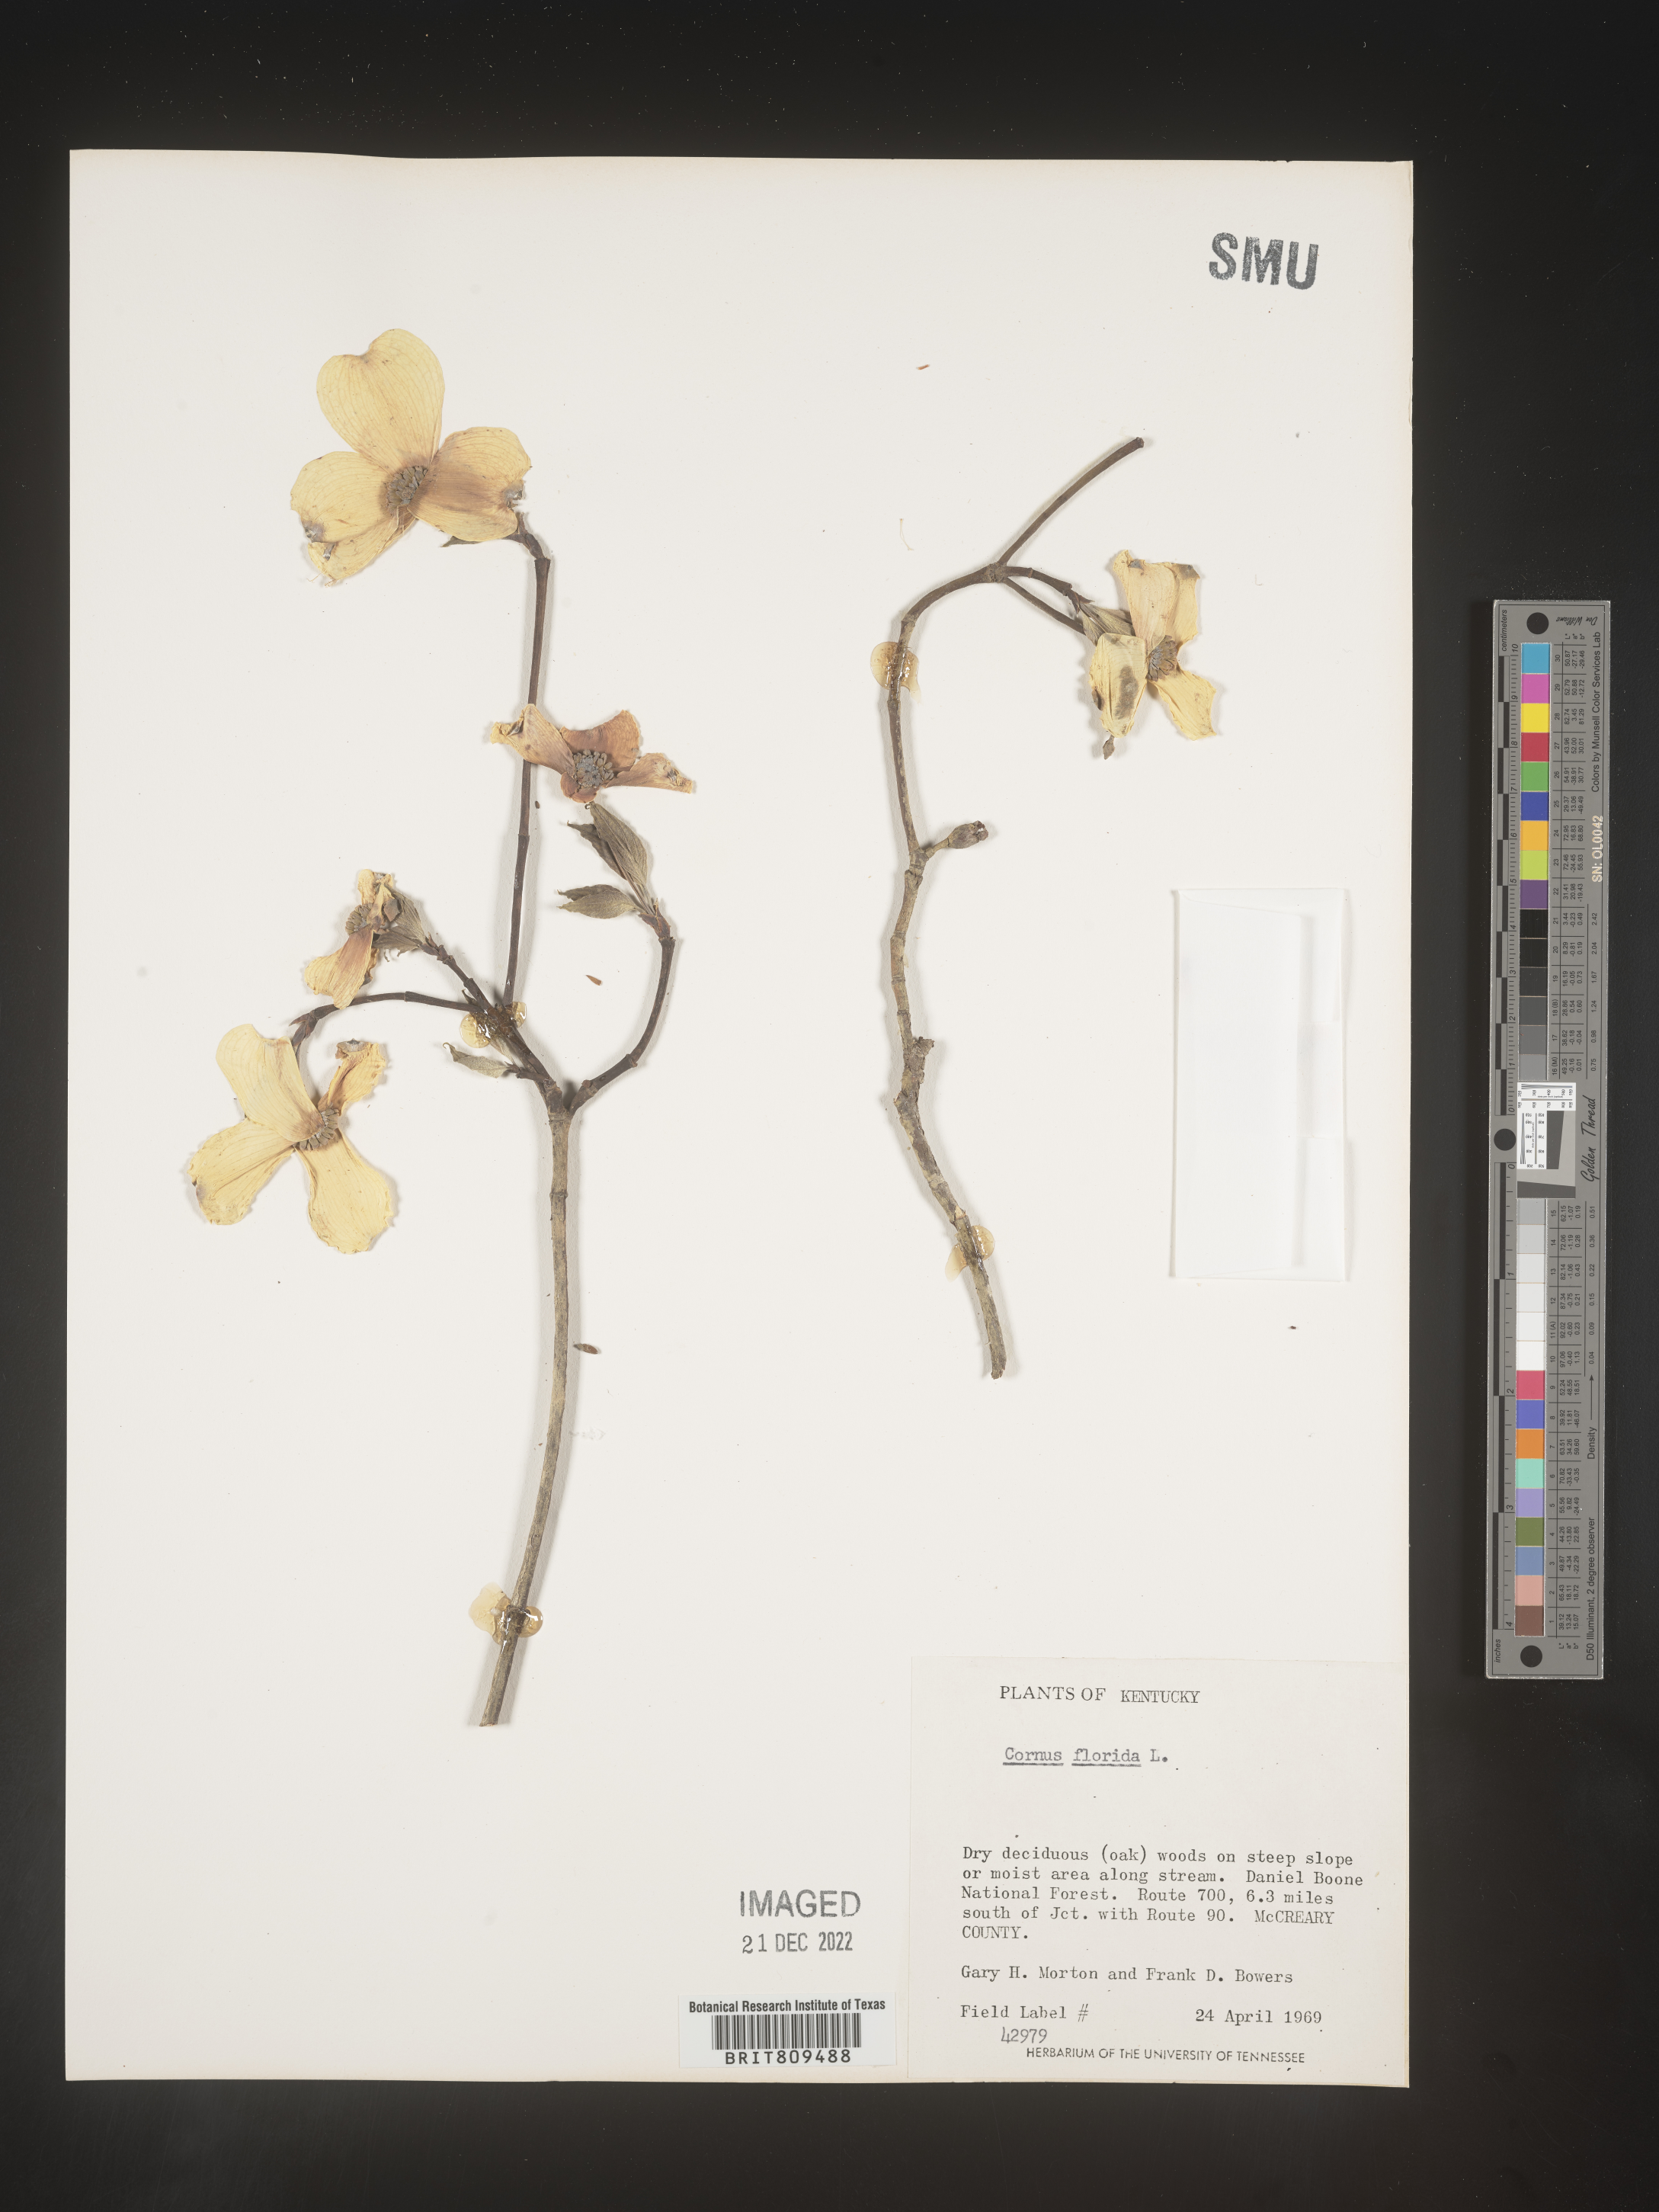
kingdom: Plantae
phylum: Tracheophyta
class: Magnoliopsida
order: Cornales
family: Cornaceae
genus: Cornus
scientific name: Cornus florida
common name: Flowering dogwood
